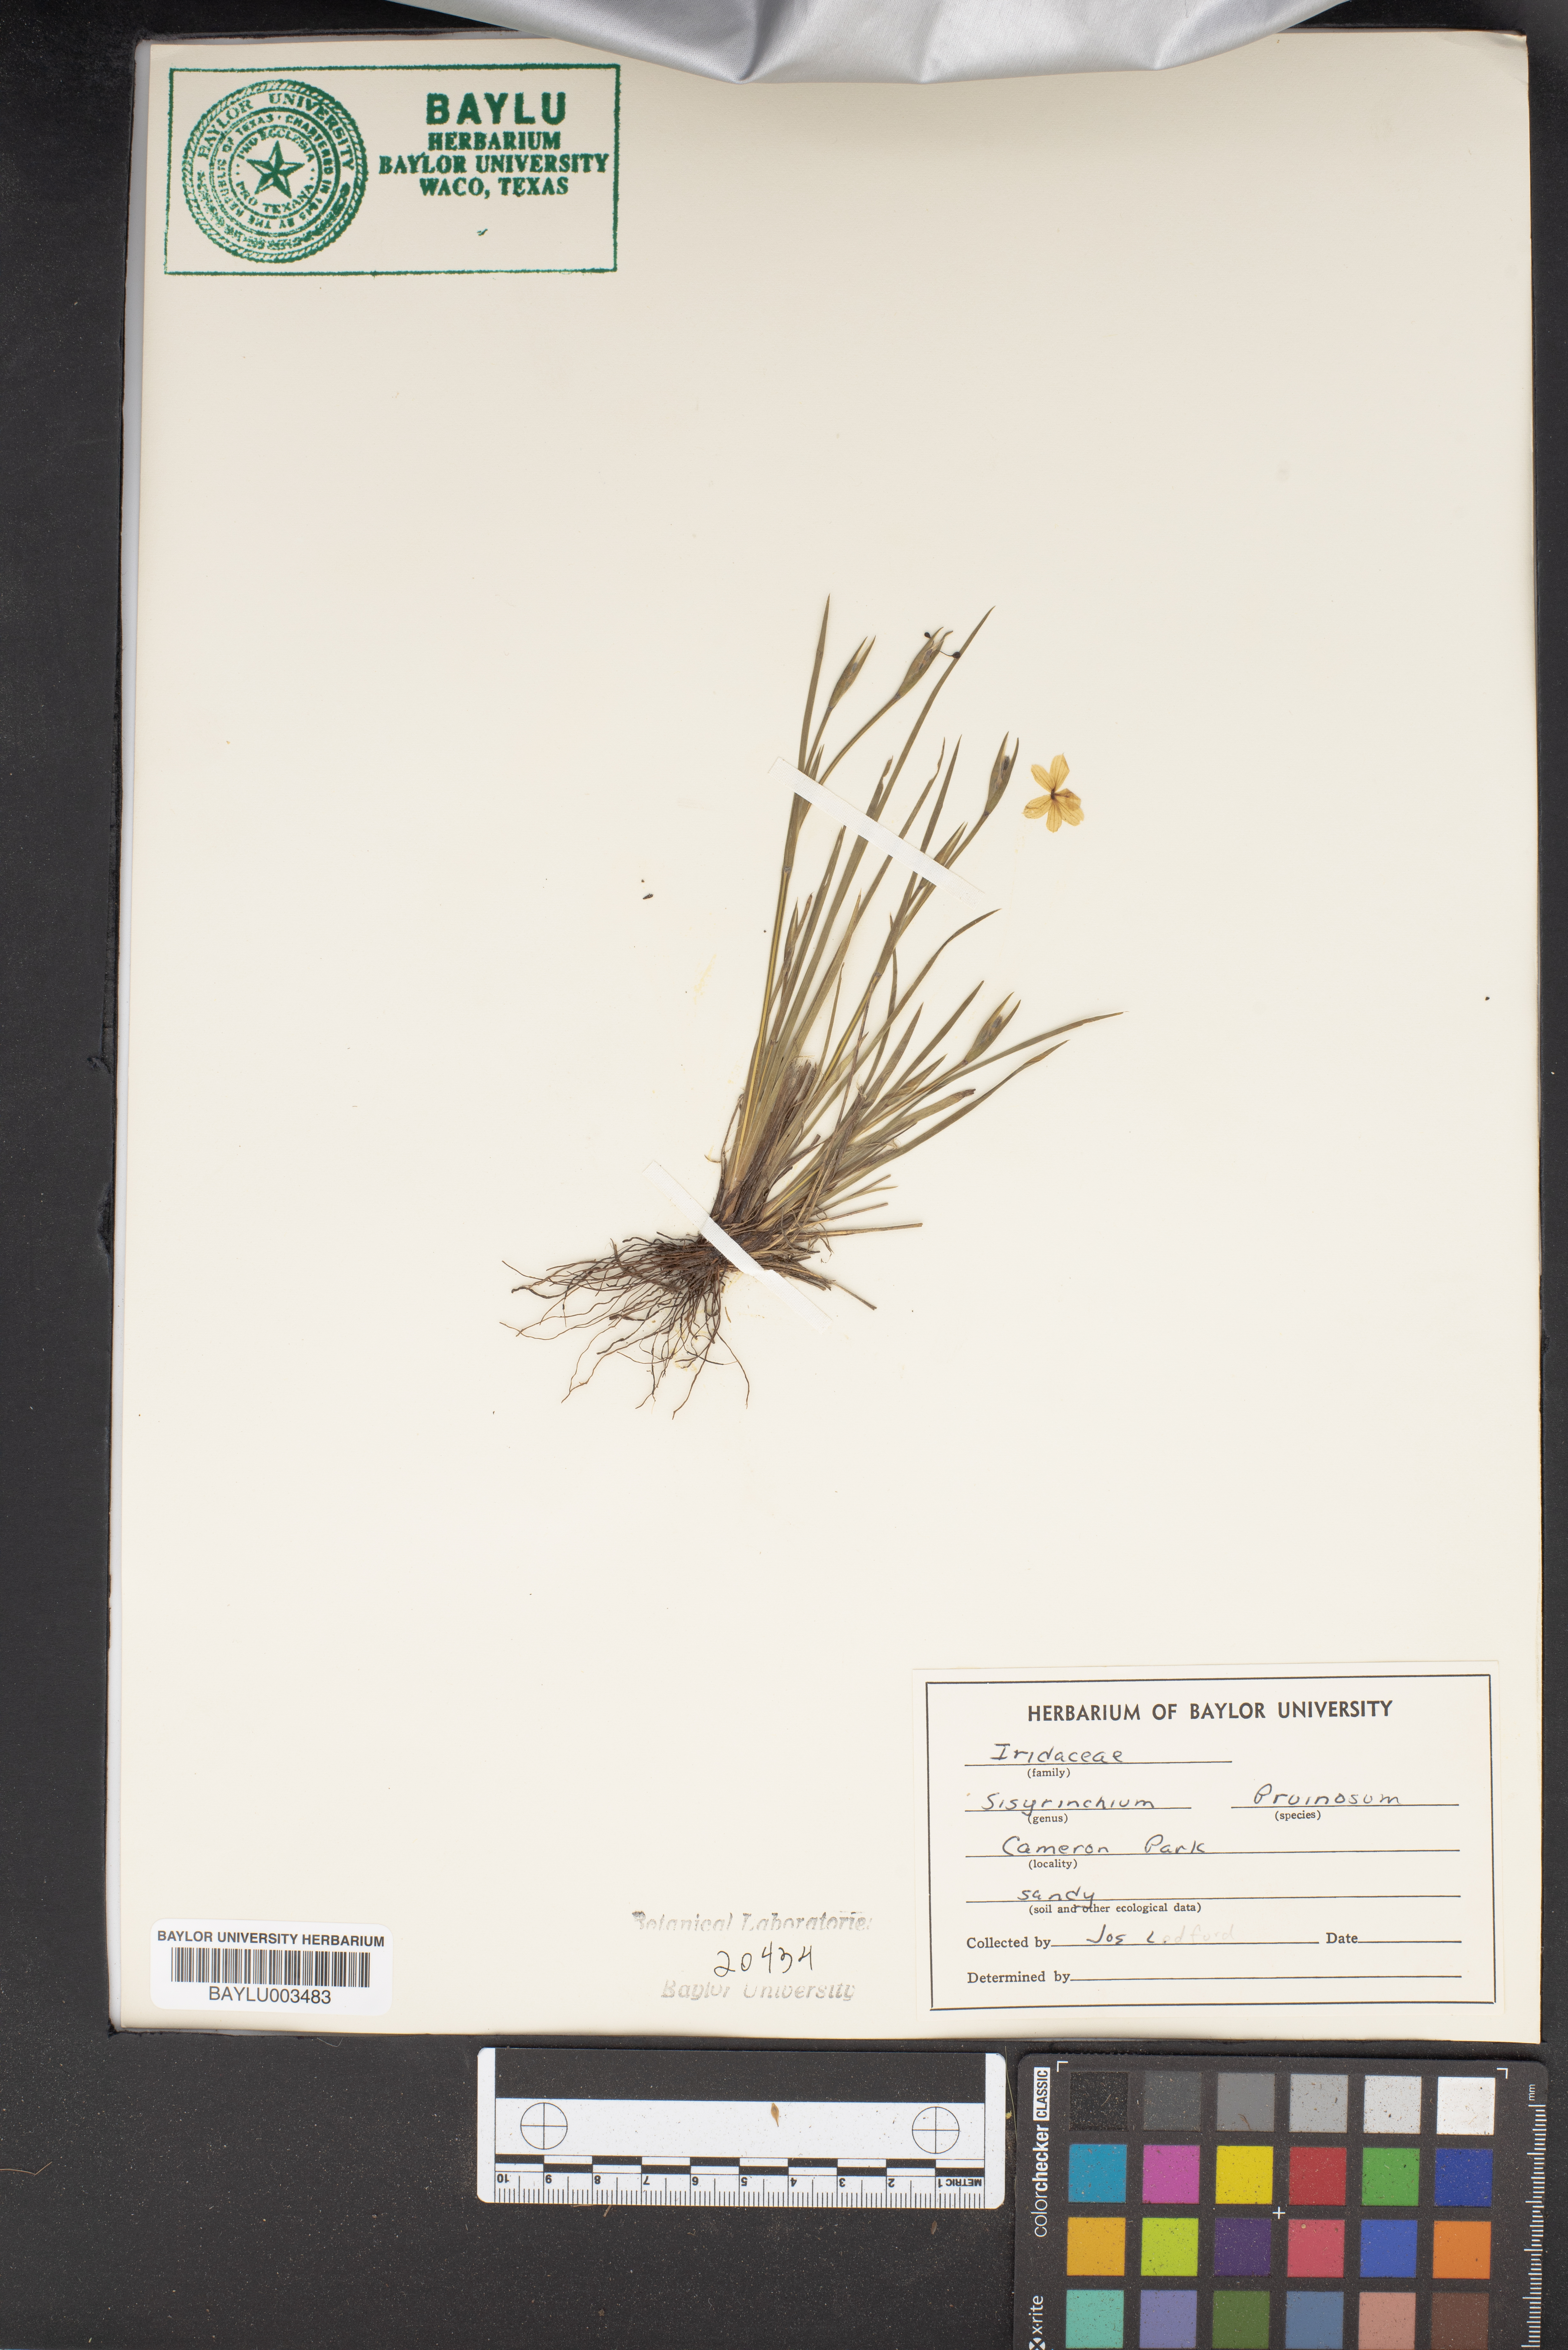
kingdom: Plantae
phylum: Tracheophyta
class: Liliopsida
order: Asparagales
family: Iridaceae
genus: Sisyrinchium
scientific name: Sisyrinchium pruinosum
